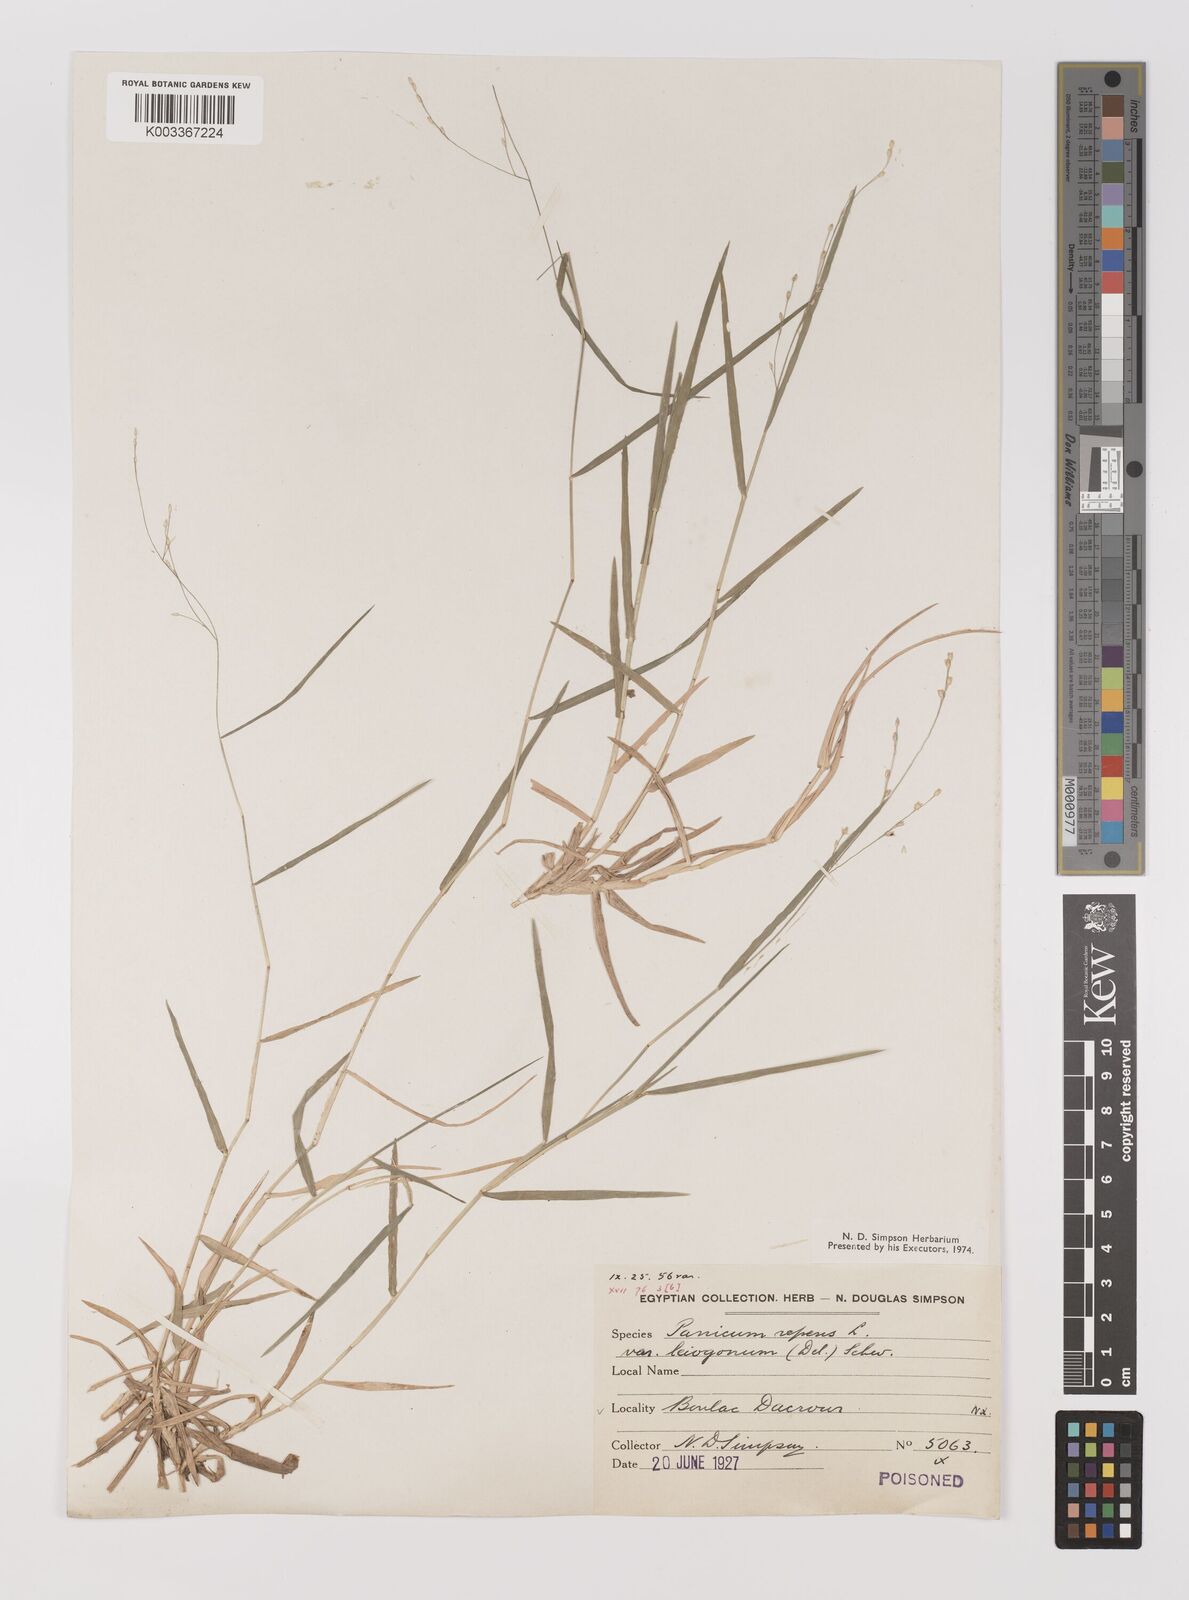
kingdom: Plantae
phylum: Tracheophyta
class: Liliopsida
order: Poales
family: Poaceae
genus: Panicum
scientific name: Panicum repens
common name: Torpedo grass
